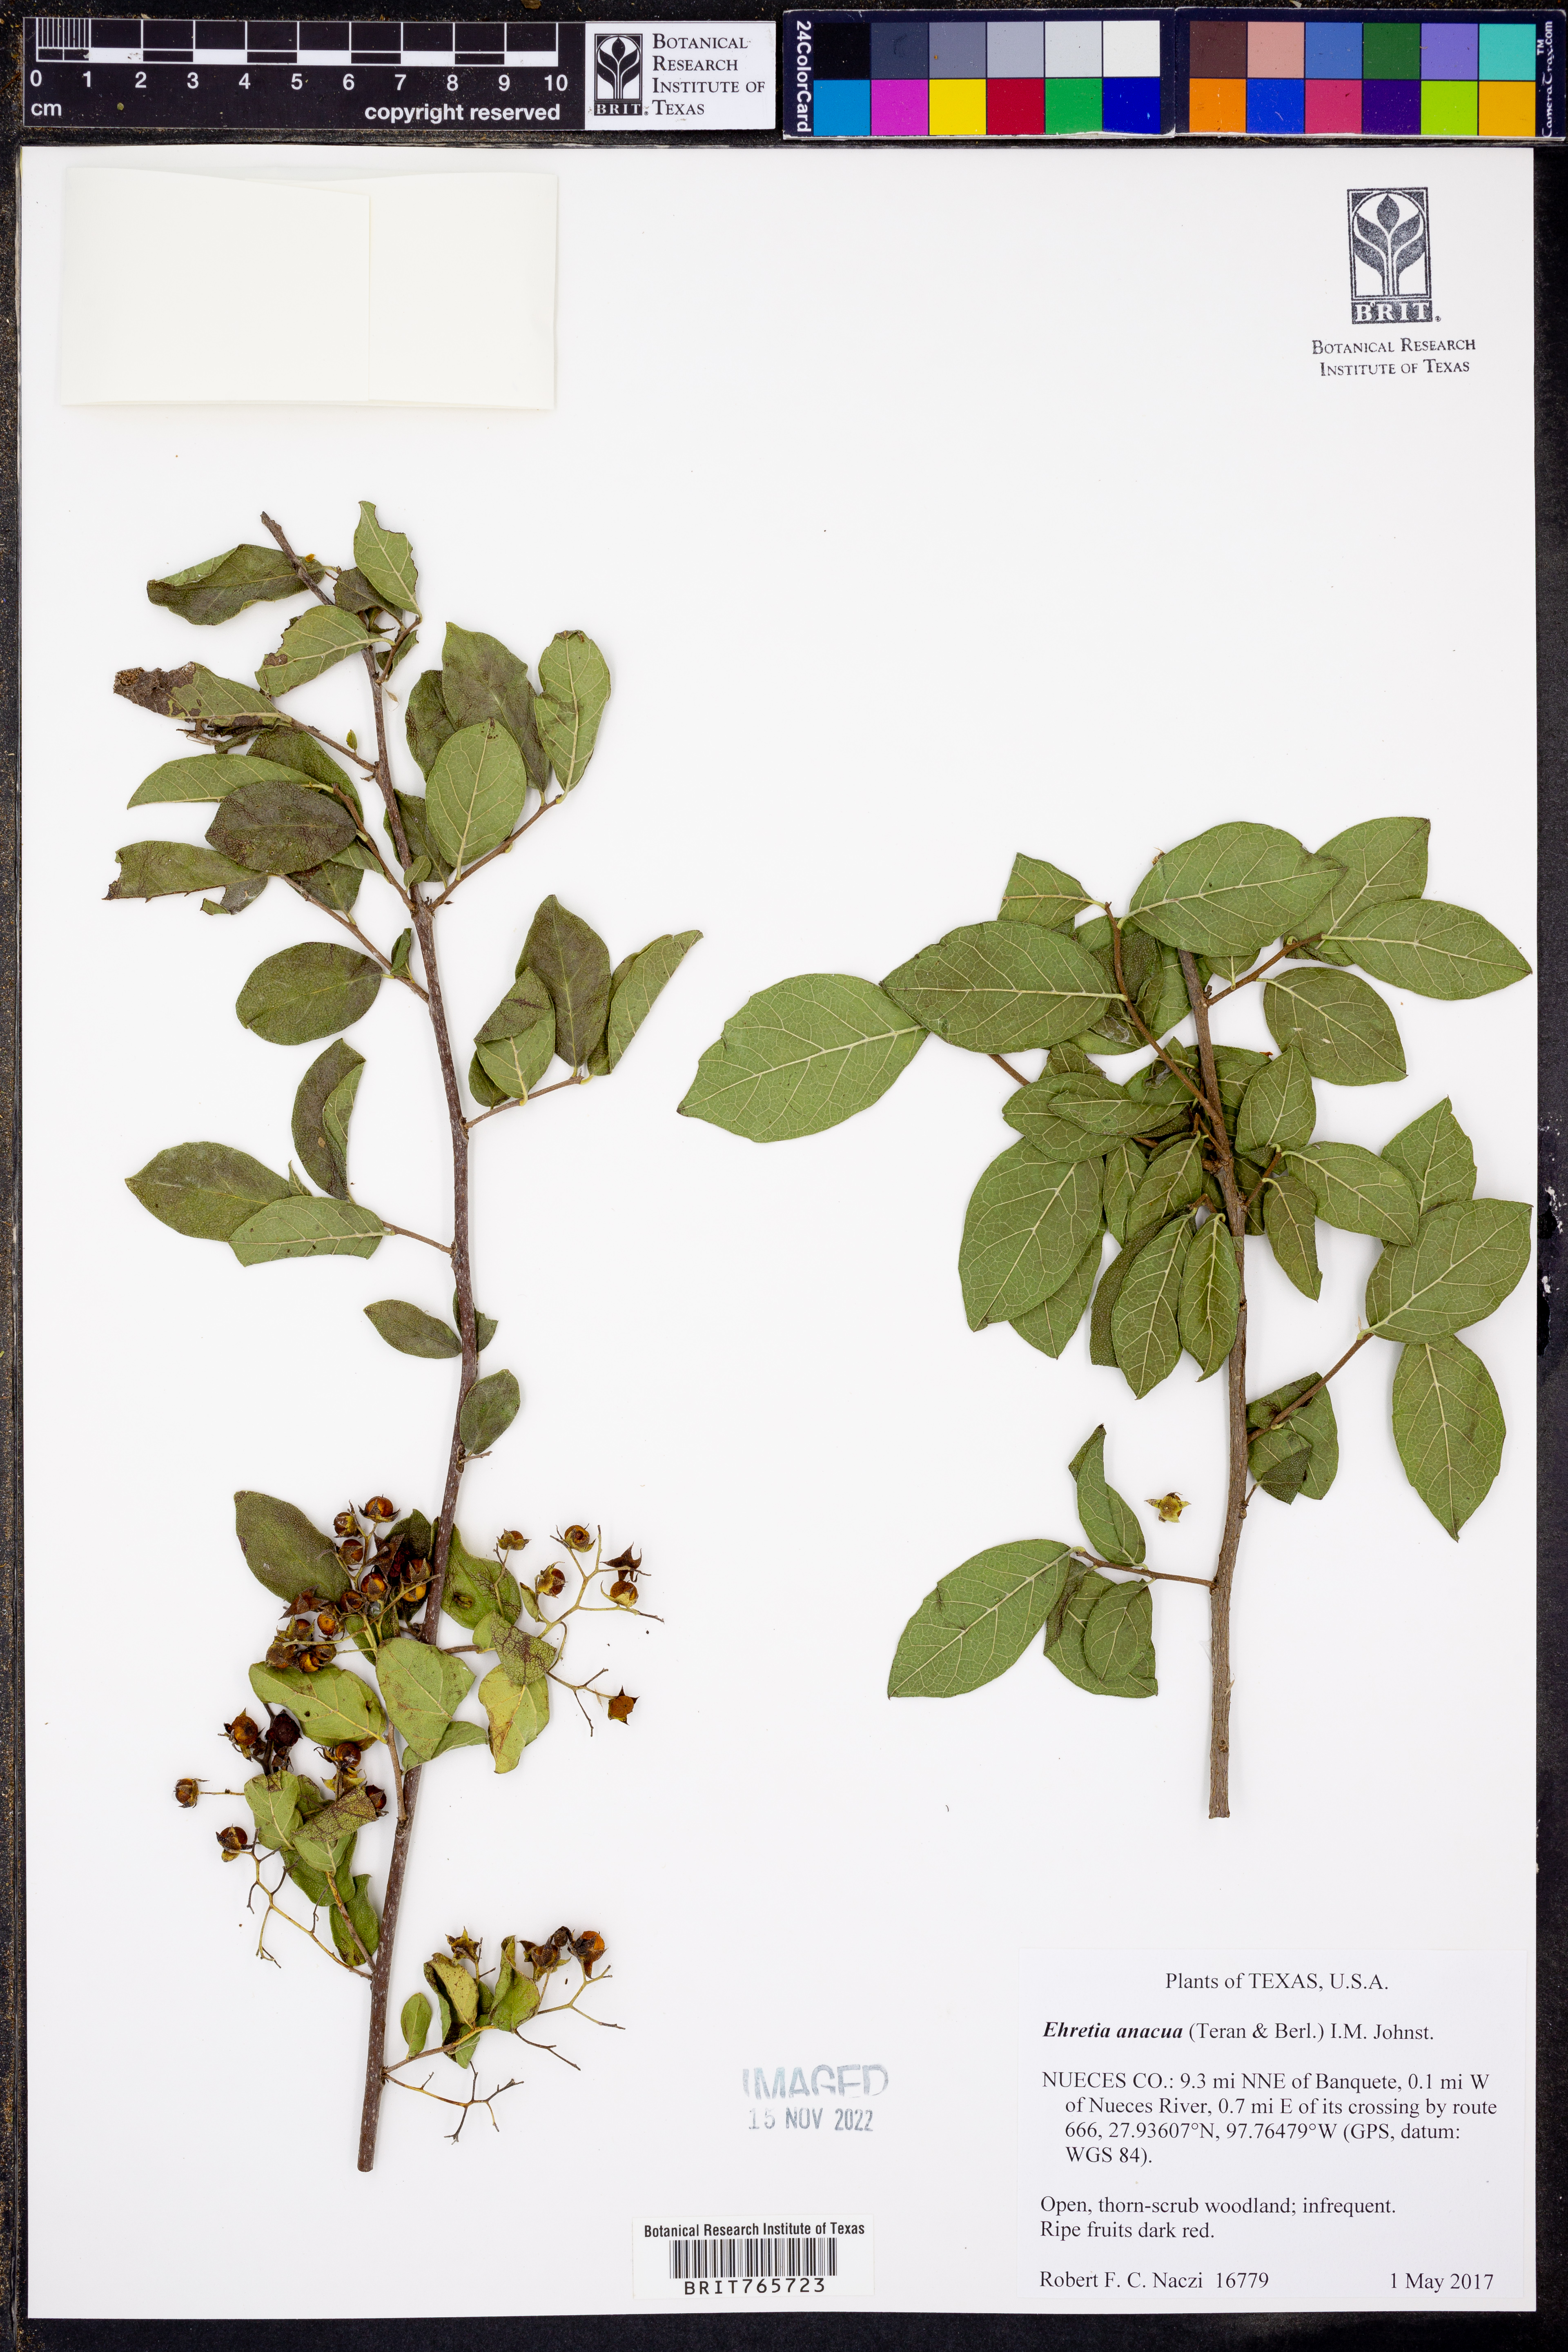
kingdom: Plantae
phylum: Tracheophyta
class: Magnoliopsida
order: Boraginales
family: Ehretiaceae
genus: Ehretia
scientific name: Ehretia anacua
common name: Sugarberry
